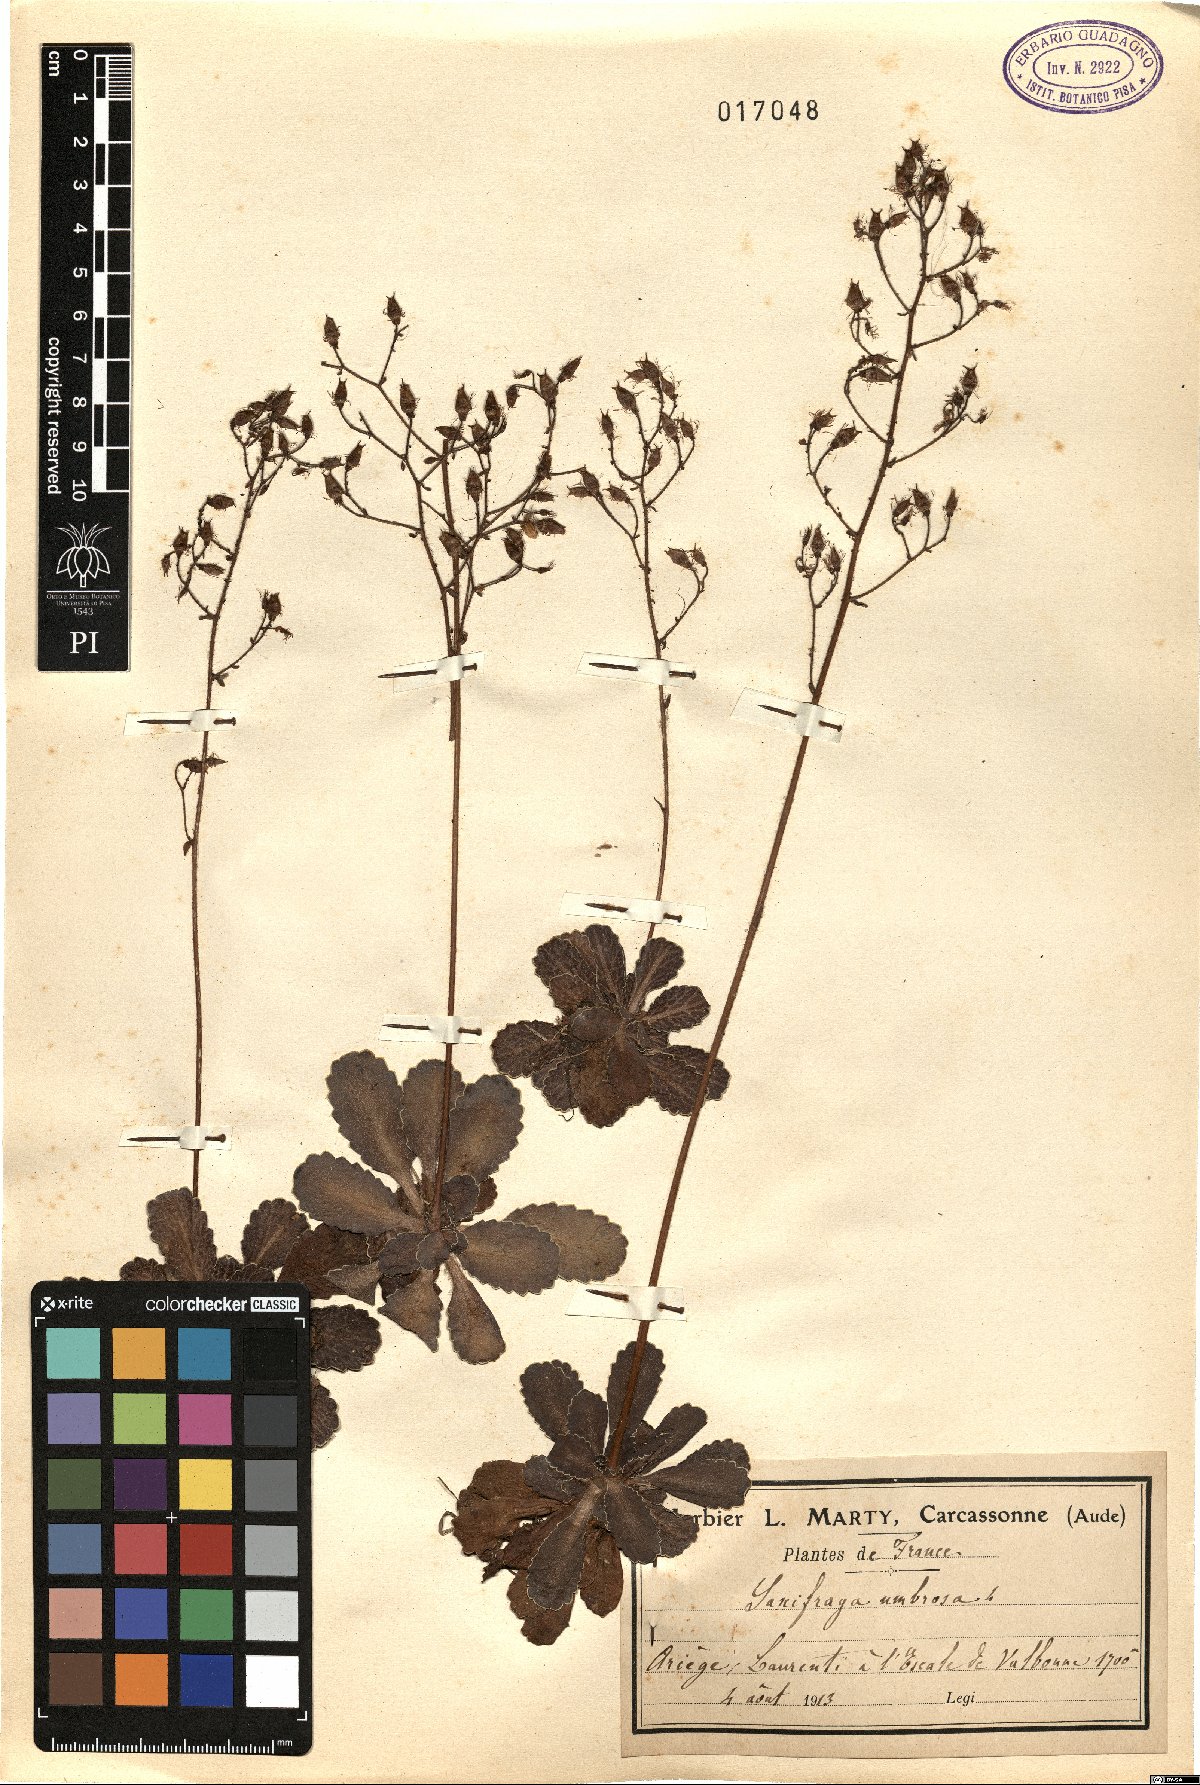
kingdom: Plantae
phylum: Tracheophyta
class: Magnoliopsida
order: Saxifragales
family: Saxifragaceae
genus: Saxifraga
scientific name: Saxifraga umbrosa
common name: Pyrenean saxifrage
